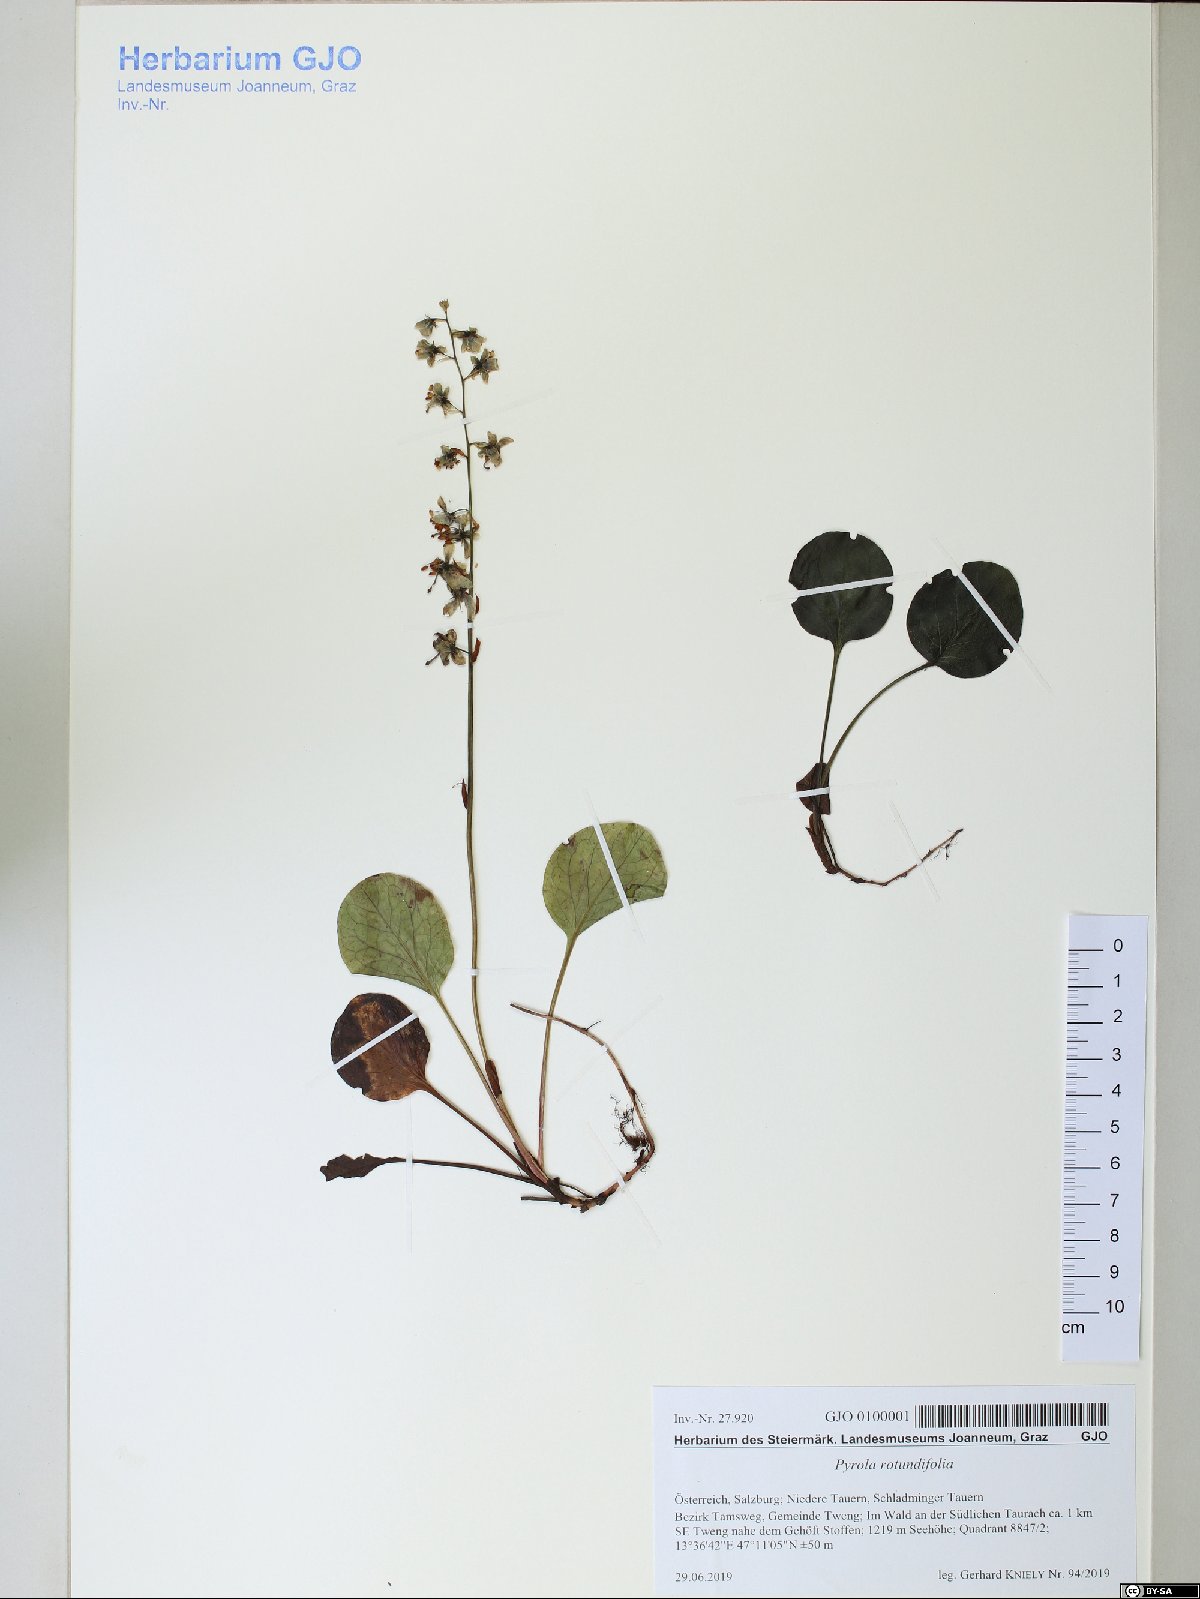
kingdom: Plantae
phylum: Tracheophyta
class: Magnoliopsida
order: Ericales
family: Ericaceae
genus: Pyrola
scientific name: Pyrola rotundifolia
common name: Round-leaved wintergreen
